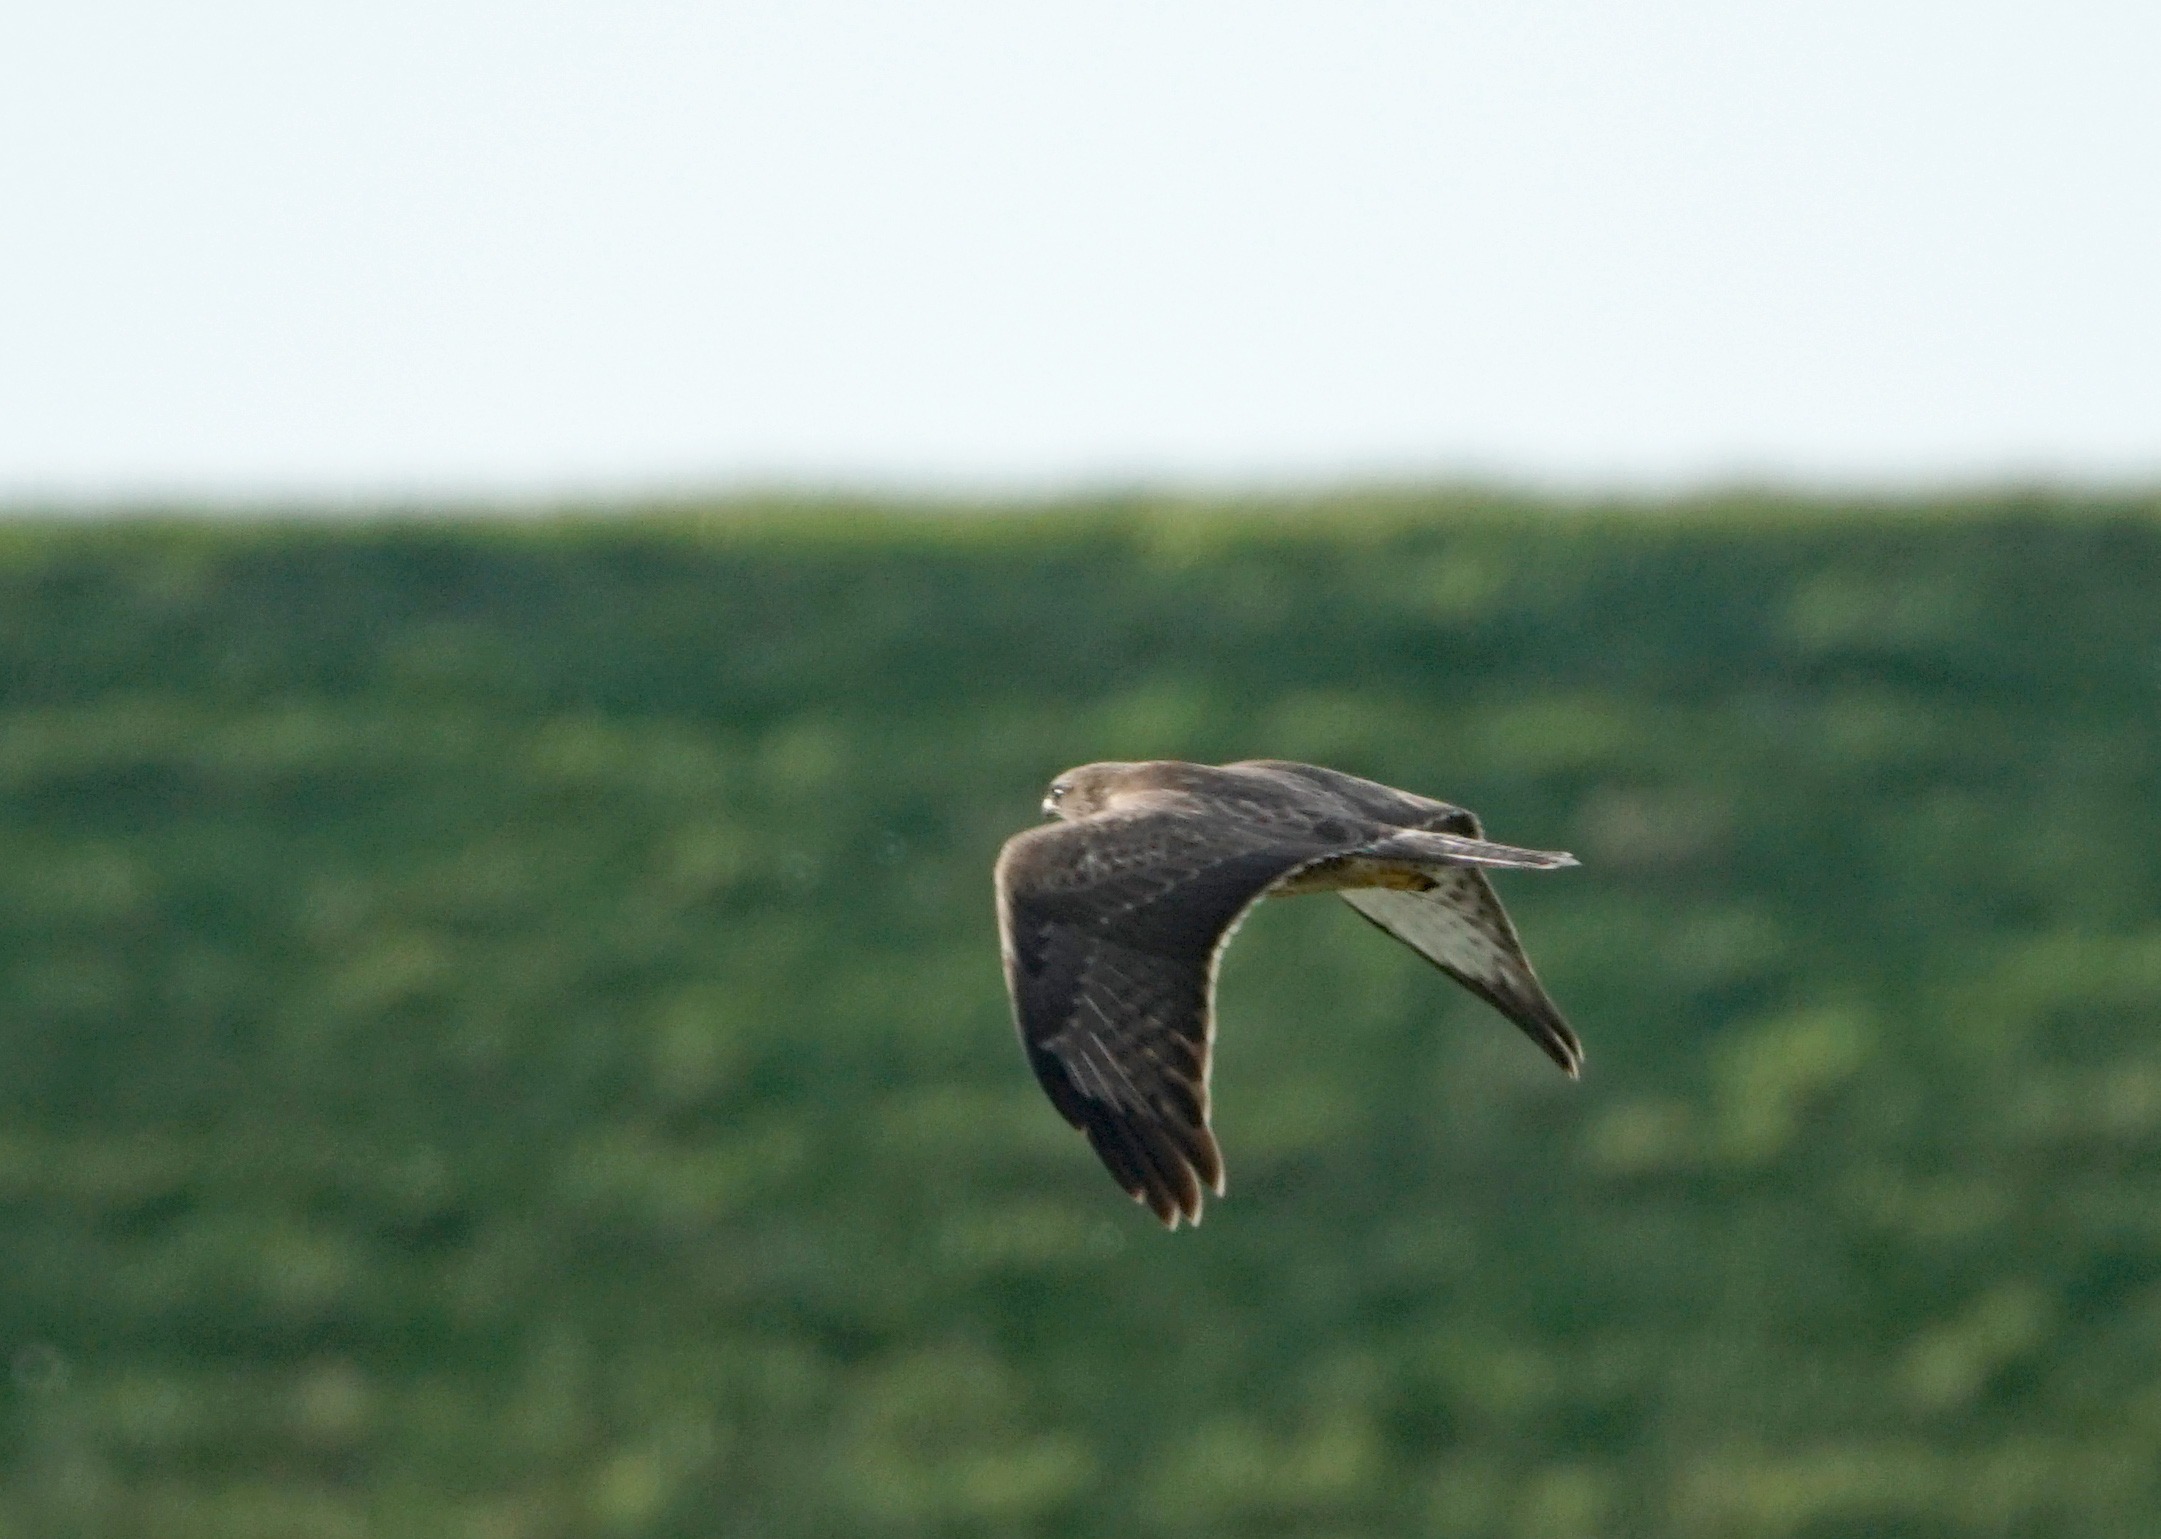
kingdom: Animalia
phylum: Chordata
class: Aves
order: Accipitriformes
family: Accipitridae
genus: Buteo
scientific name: Buteo buteo
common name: Musvåge
